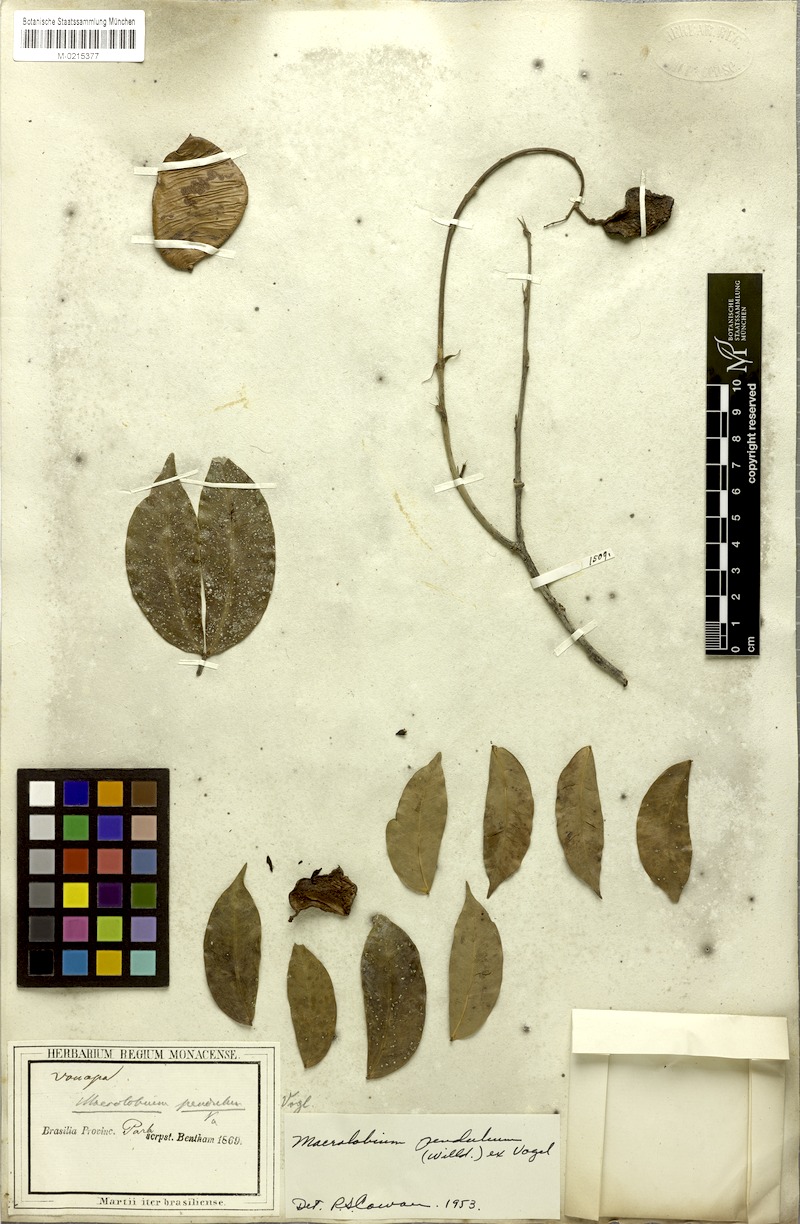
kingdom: Plantae
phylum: Tracheophyta
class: Magnoliopsida
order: Fabales
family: Fabaceae
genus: Macrolobium
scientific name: Macrolobium pendulum
